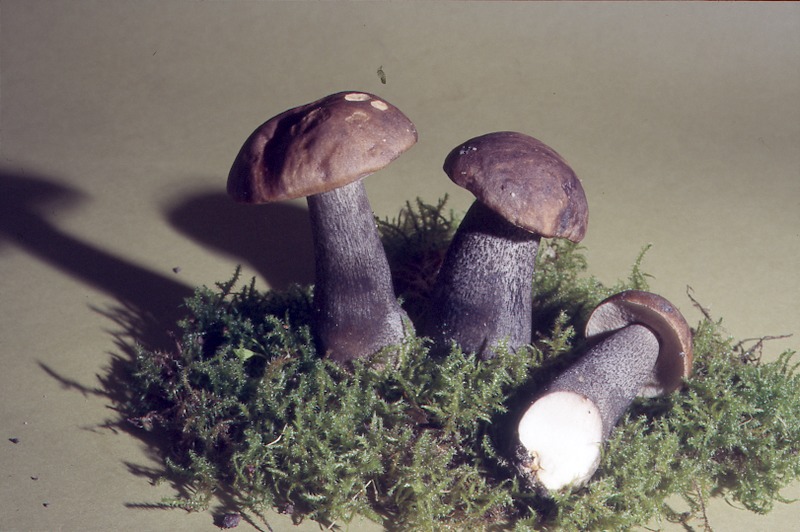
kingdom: Fungi
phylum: Basidiomycota
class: Agaricomycetes
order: Boletales
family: Boletaceae
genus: Leccinum
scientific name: Leccinum melaneum
